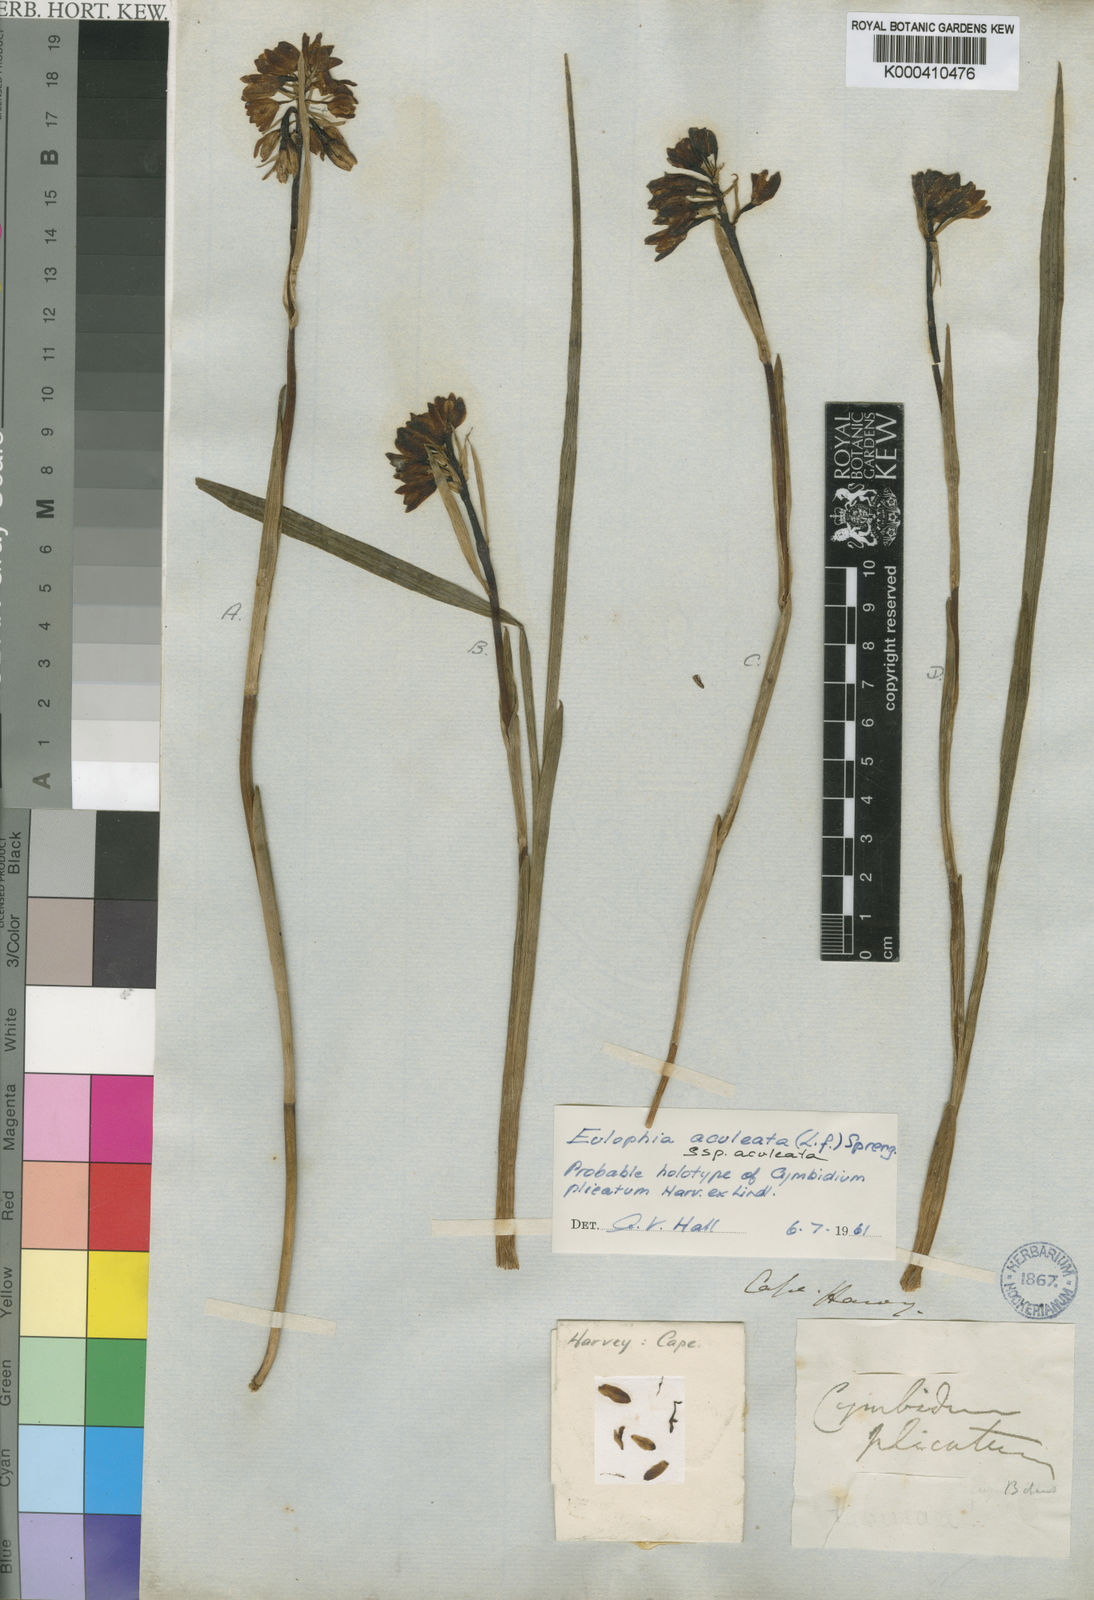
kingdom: Plantae
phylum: Tracheophyta
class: Liliopsida
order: Asparagales
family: Orchidaceae
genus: Eulophia
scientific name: Eulophia aculeata
